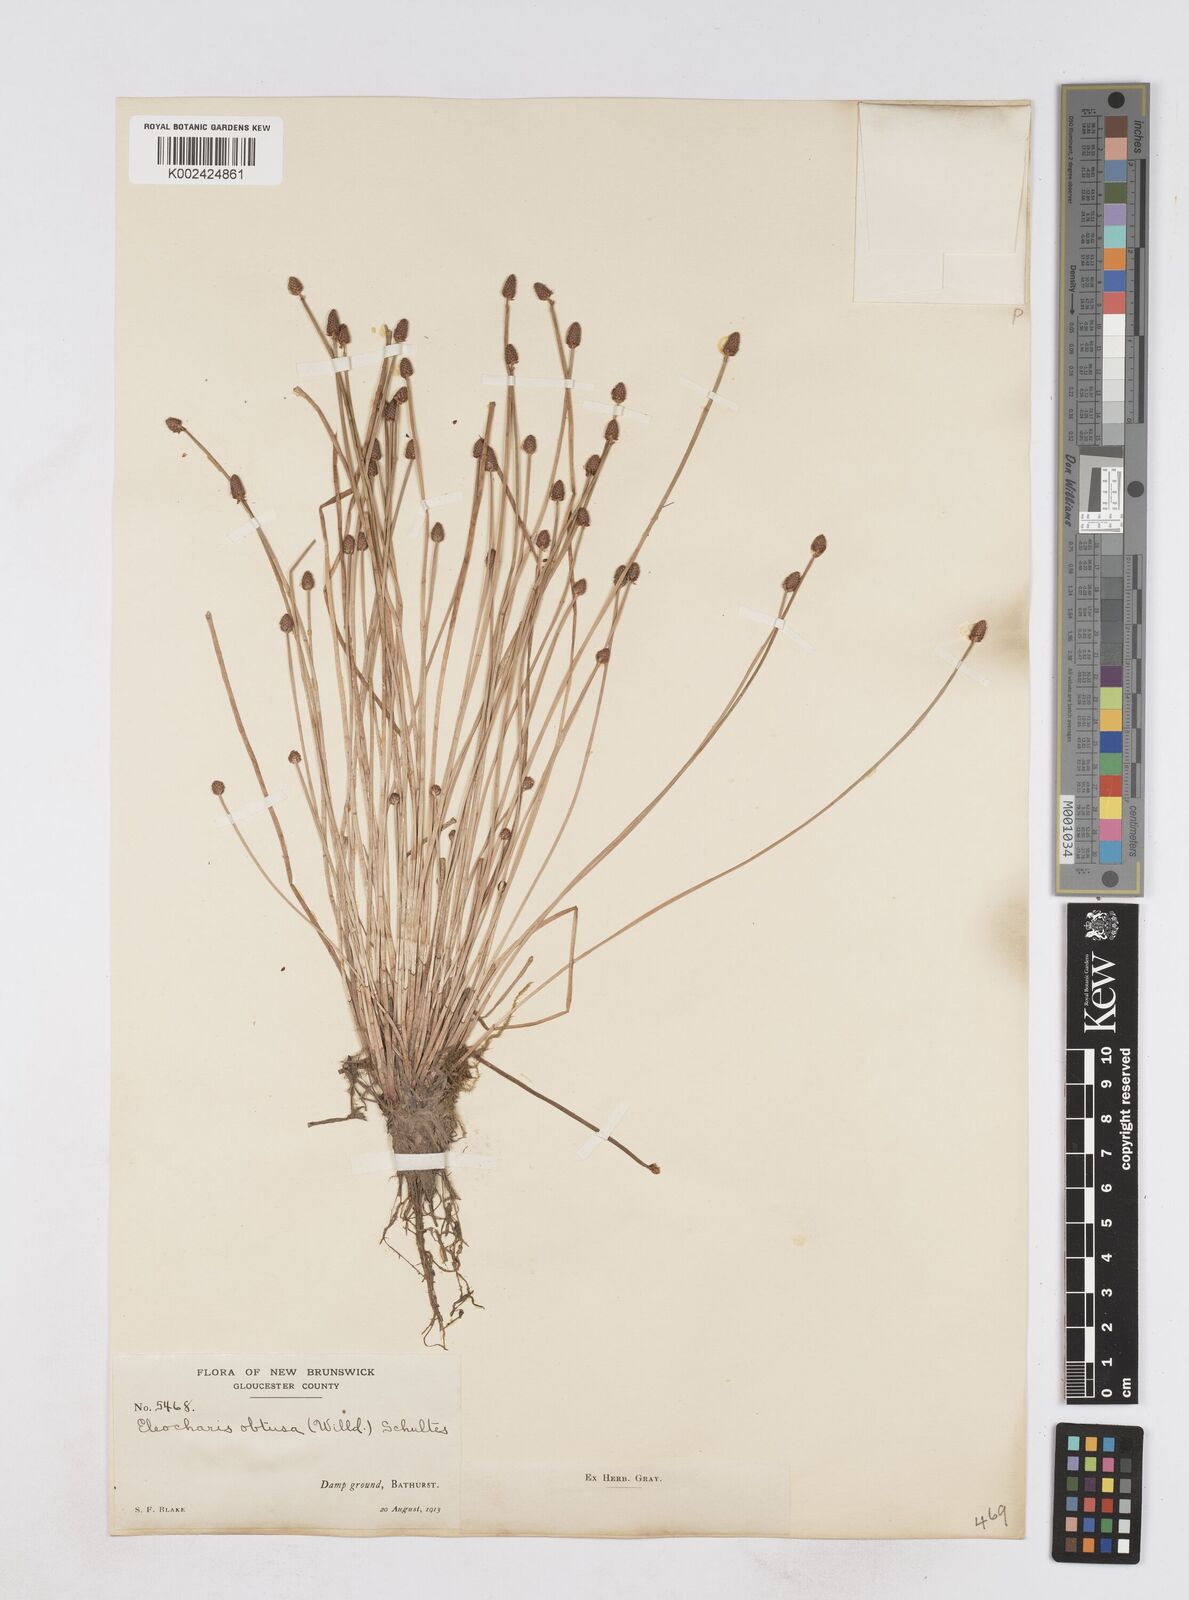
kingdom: Plantae
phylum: Tracheophyta
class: Liliopsida
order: Poales
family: Cyperaceae
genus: Eleocharis
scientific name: Eleocharis obtusa
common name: Blunt spikerush
